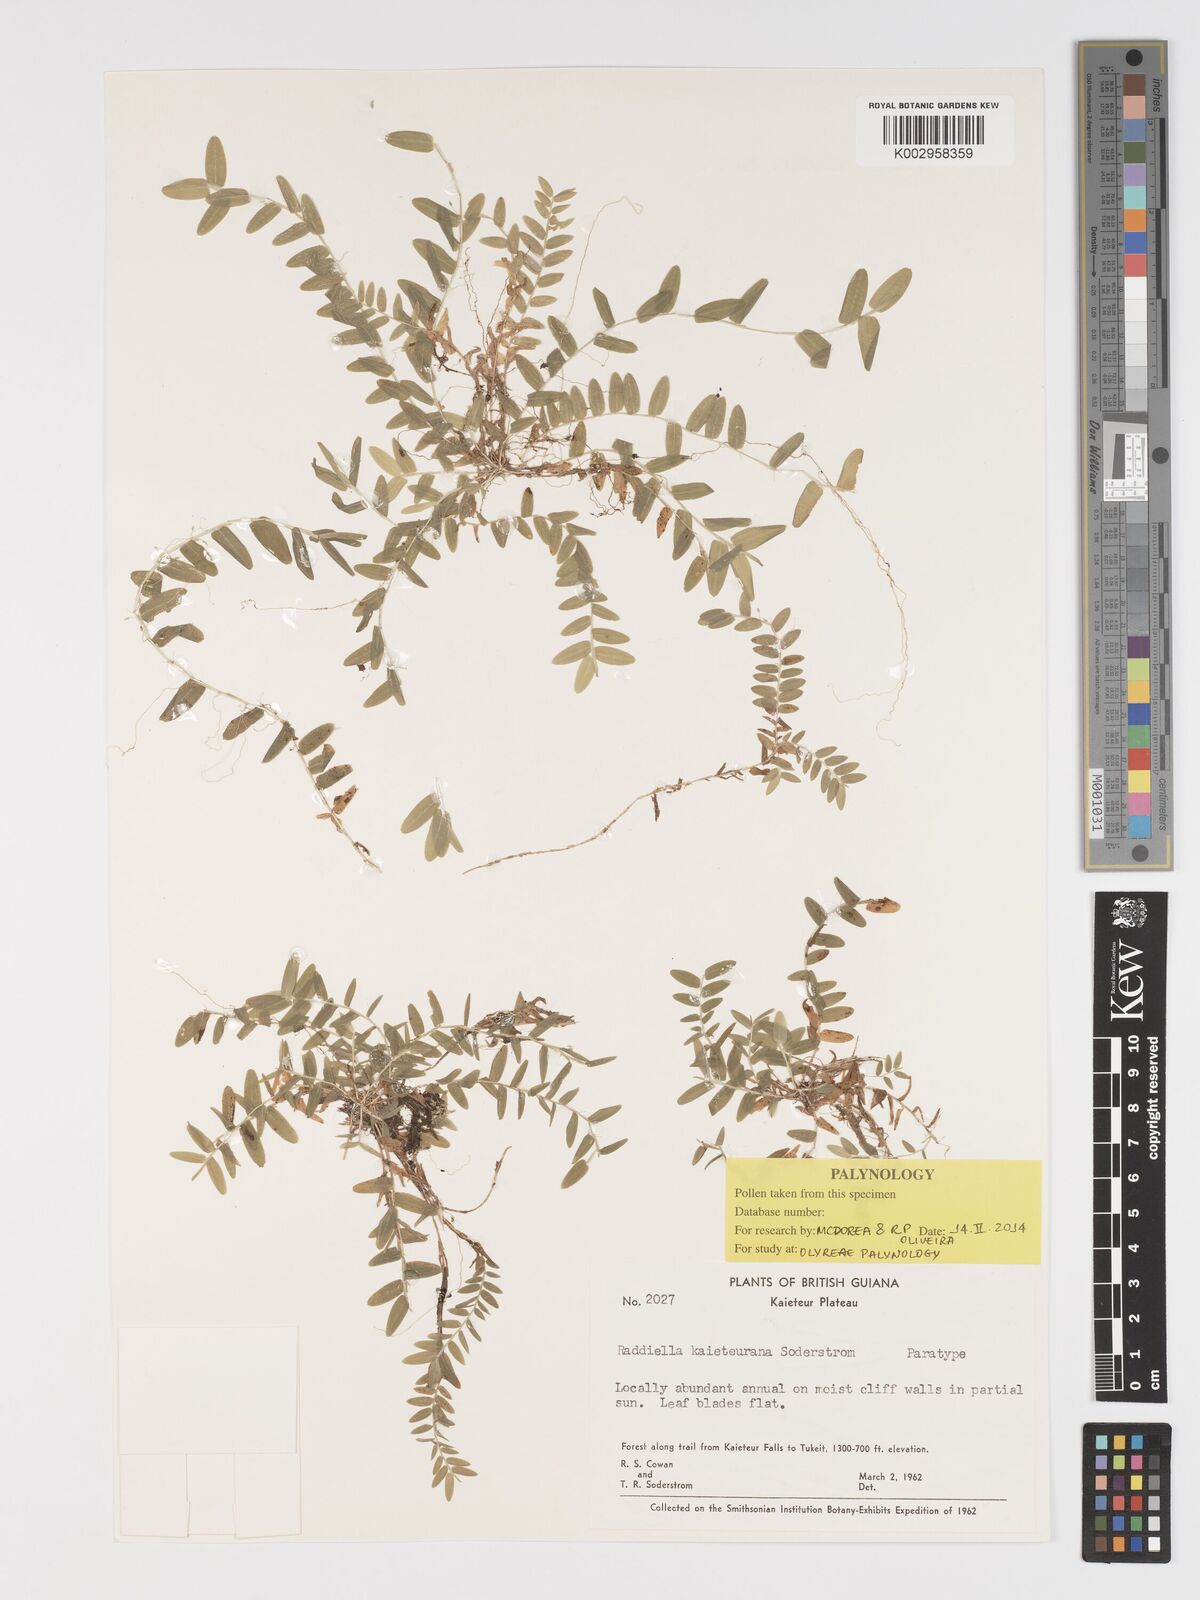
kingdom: Plantae
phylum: Tracheophyta
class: Liliopsida
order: Poales
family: Poaceae
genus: Raddiella
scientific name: Raddiella kaieteurana
